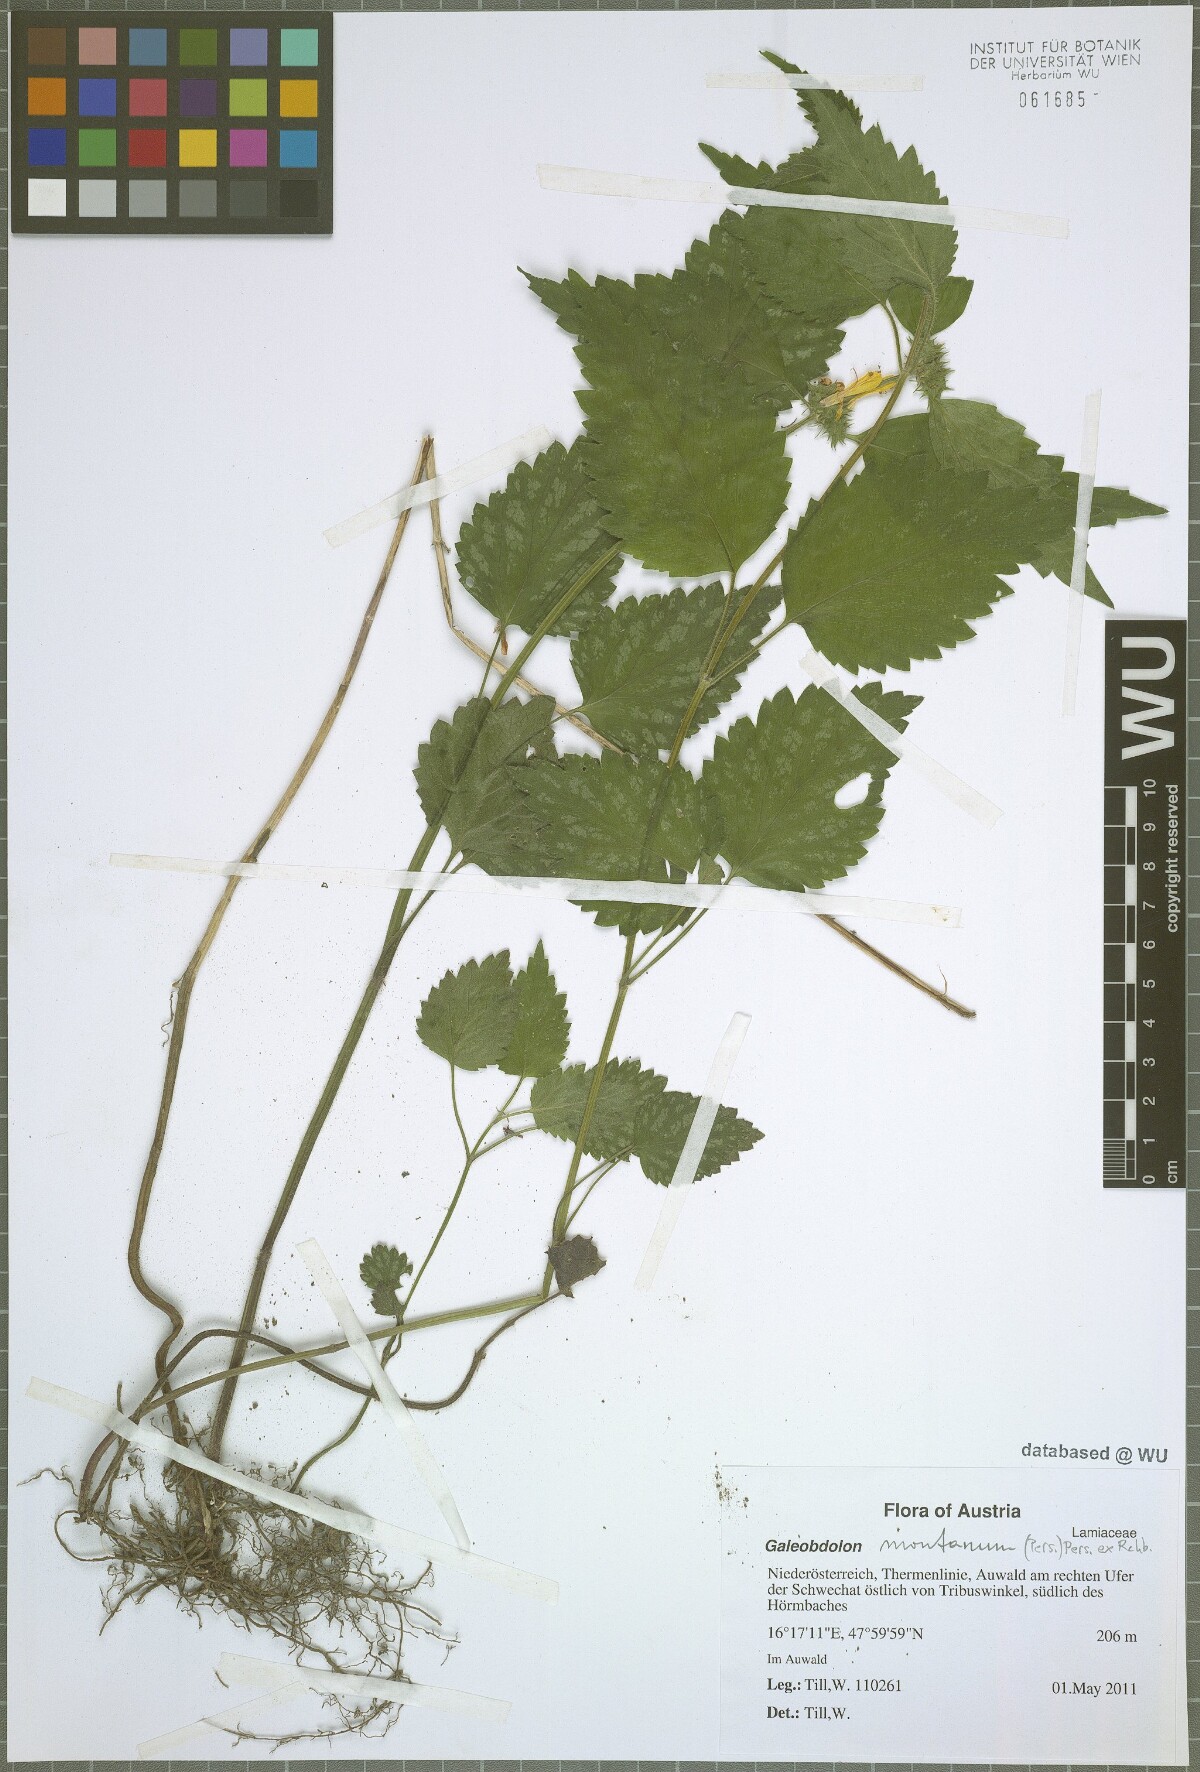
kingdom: Plantae
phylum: Tracheophyta
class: Magnoliopsida
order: Lamiales
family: Lamiaceae
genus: Lamium
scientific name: Lamium galeobdolon
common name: Yellow archangel
